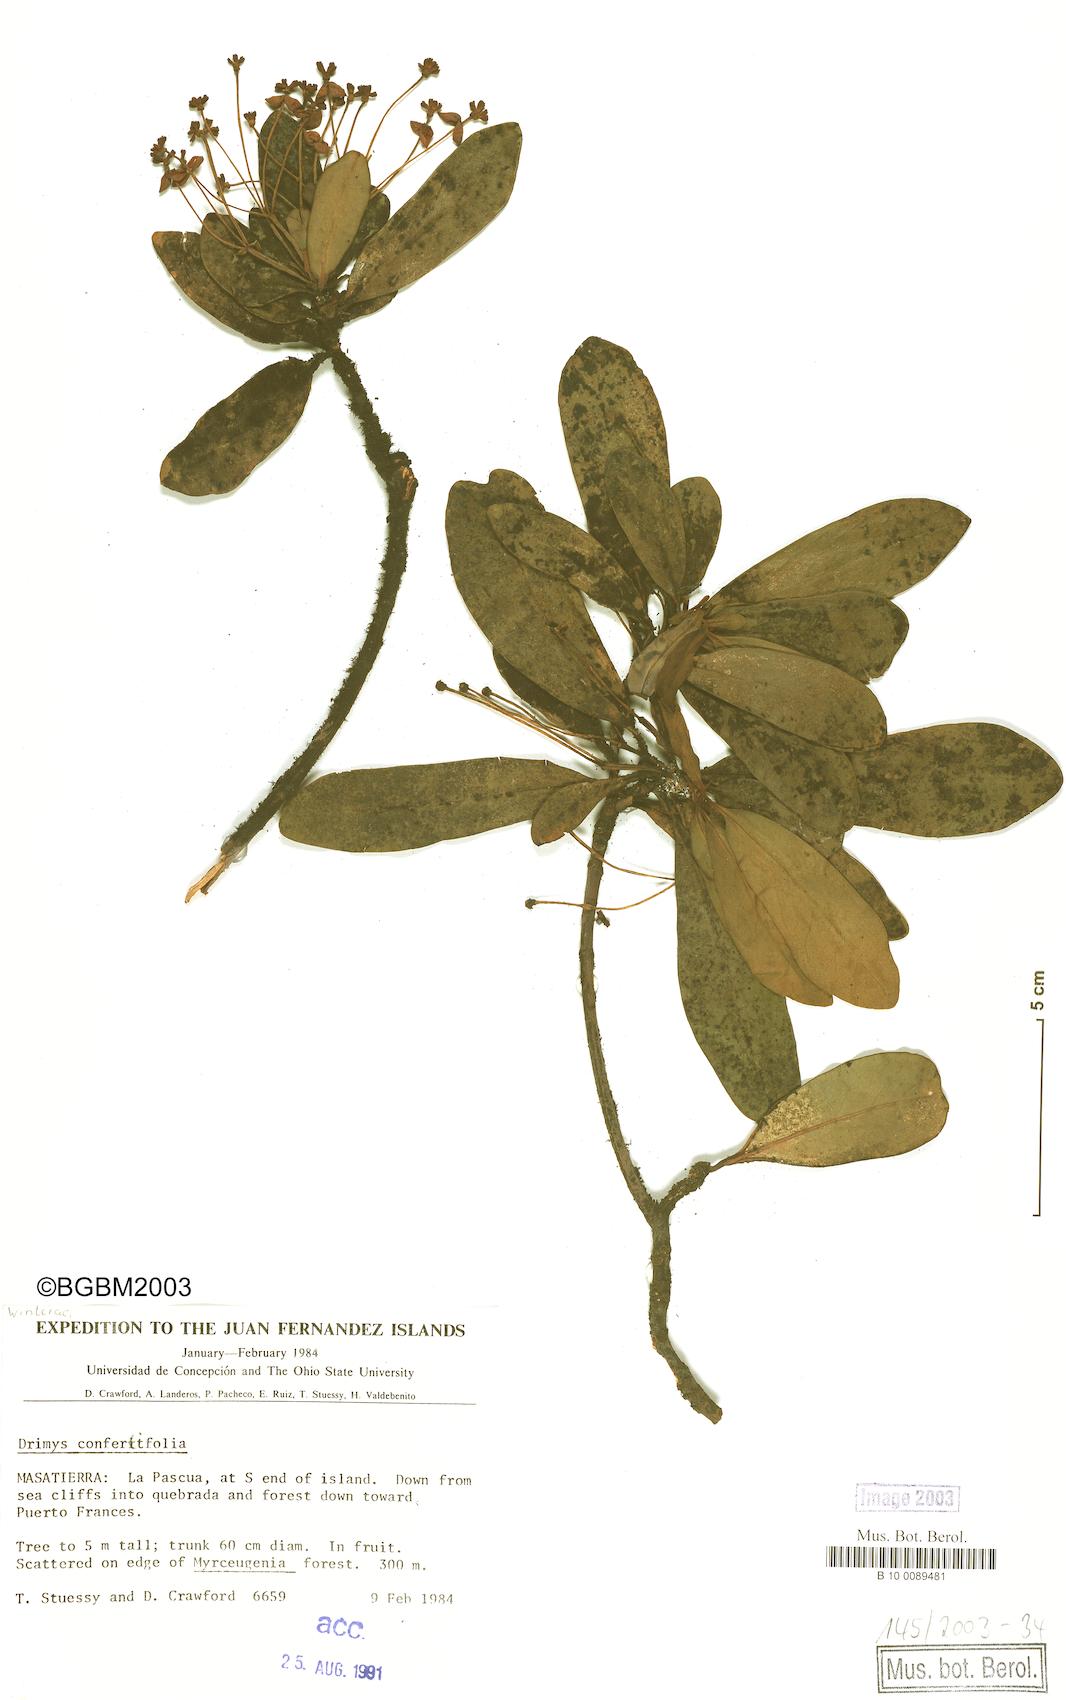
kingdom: Plantae
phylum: Tracheophyta
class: Magnoliopsida
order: Canellales
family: Winteraceae
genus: Drimys
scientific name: Drimys confertiflora
